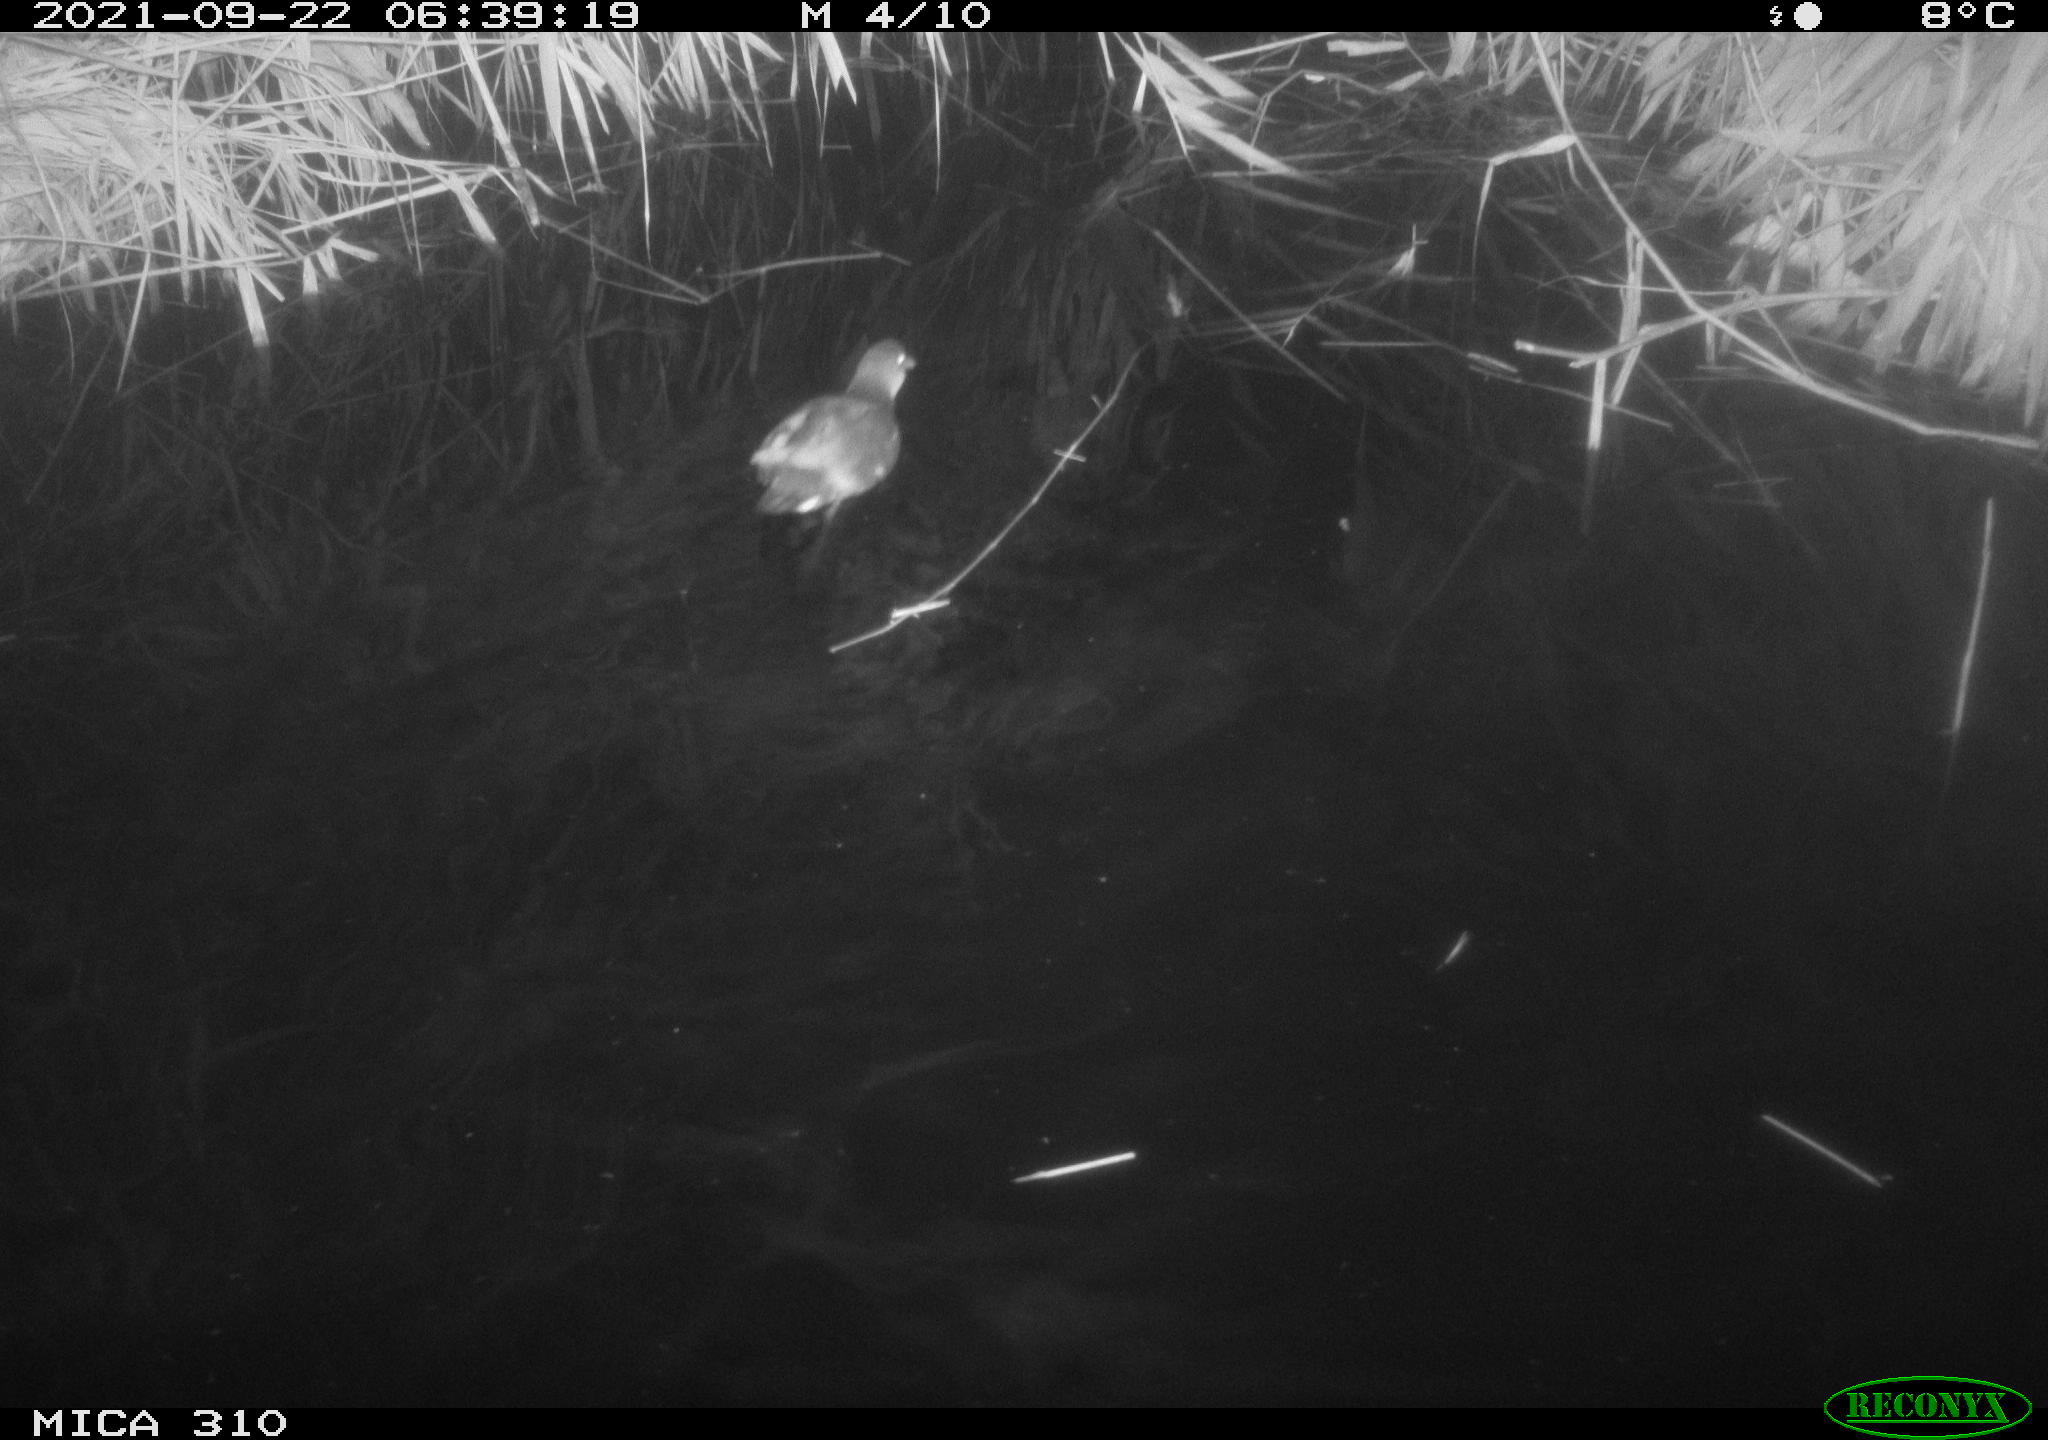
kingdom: Animalia
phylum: Chordata
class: Aves
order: Gruiformes
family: Rallidae
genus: Gallinula
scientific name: Gallinula chloropus
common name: Common moorhen
